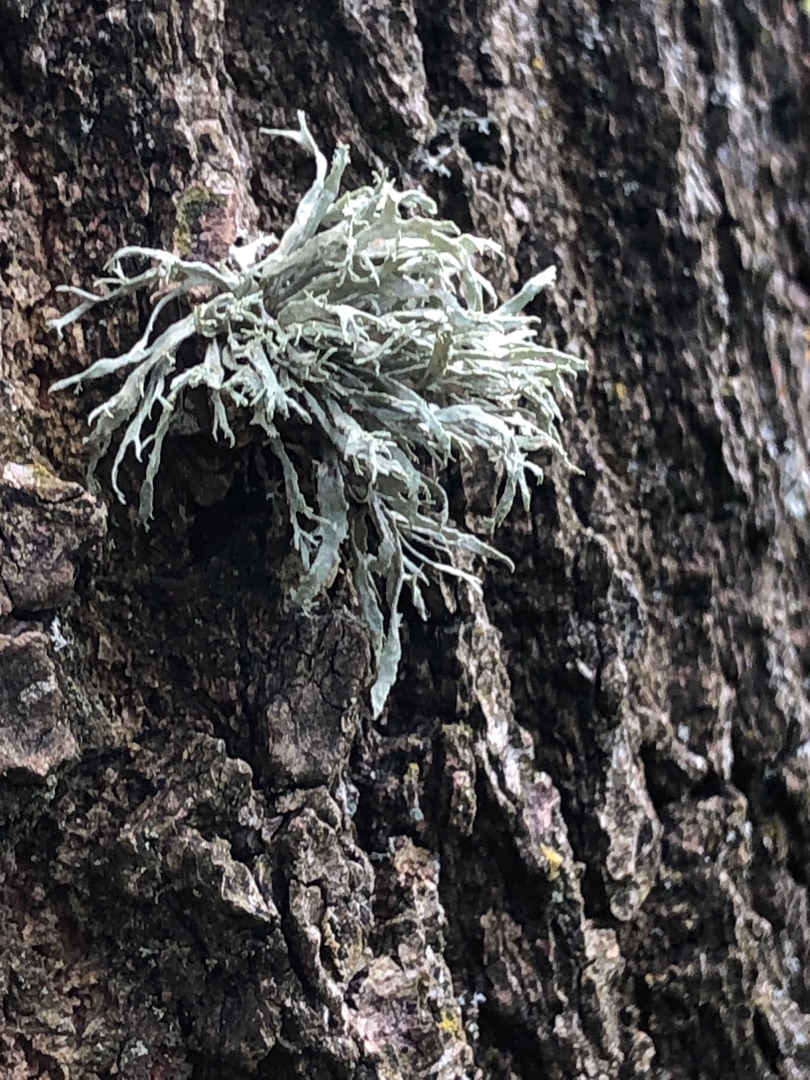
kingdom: Fungi
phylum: Ascomycota
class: Lecanoromycetes
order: Lecanorales
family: Ramalinaceae
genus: Ramalina
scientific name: Ramalina farinacea
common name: Melet grenlav
